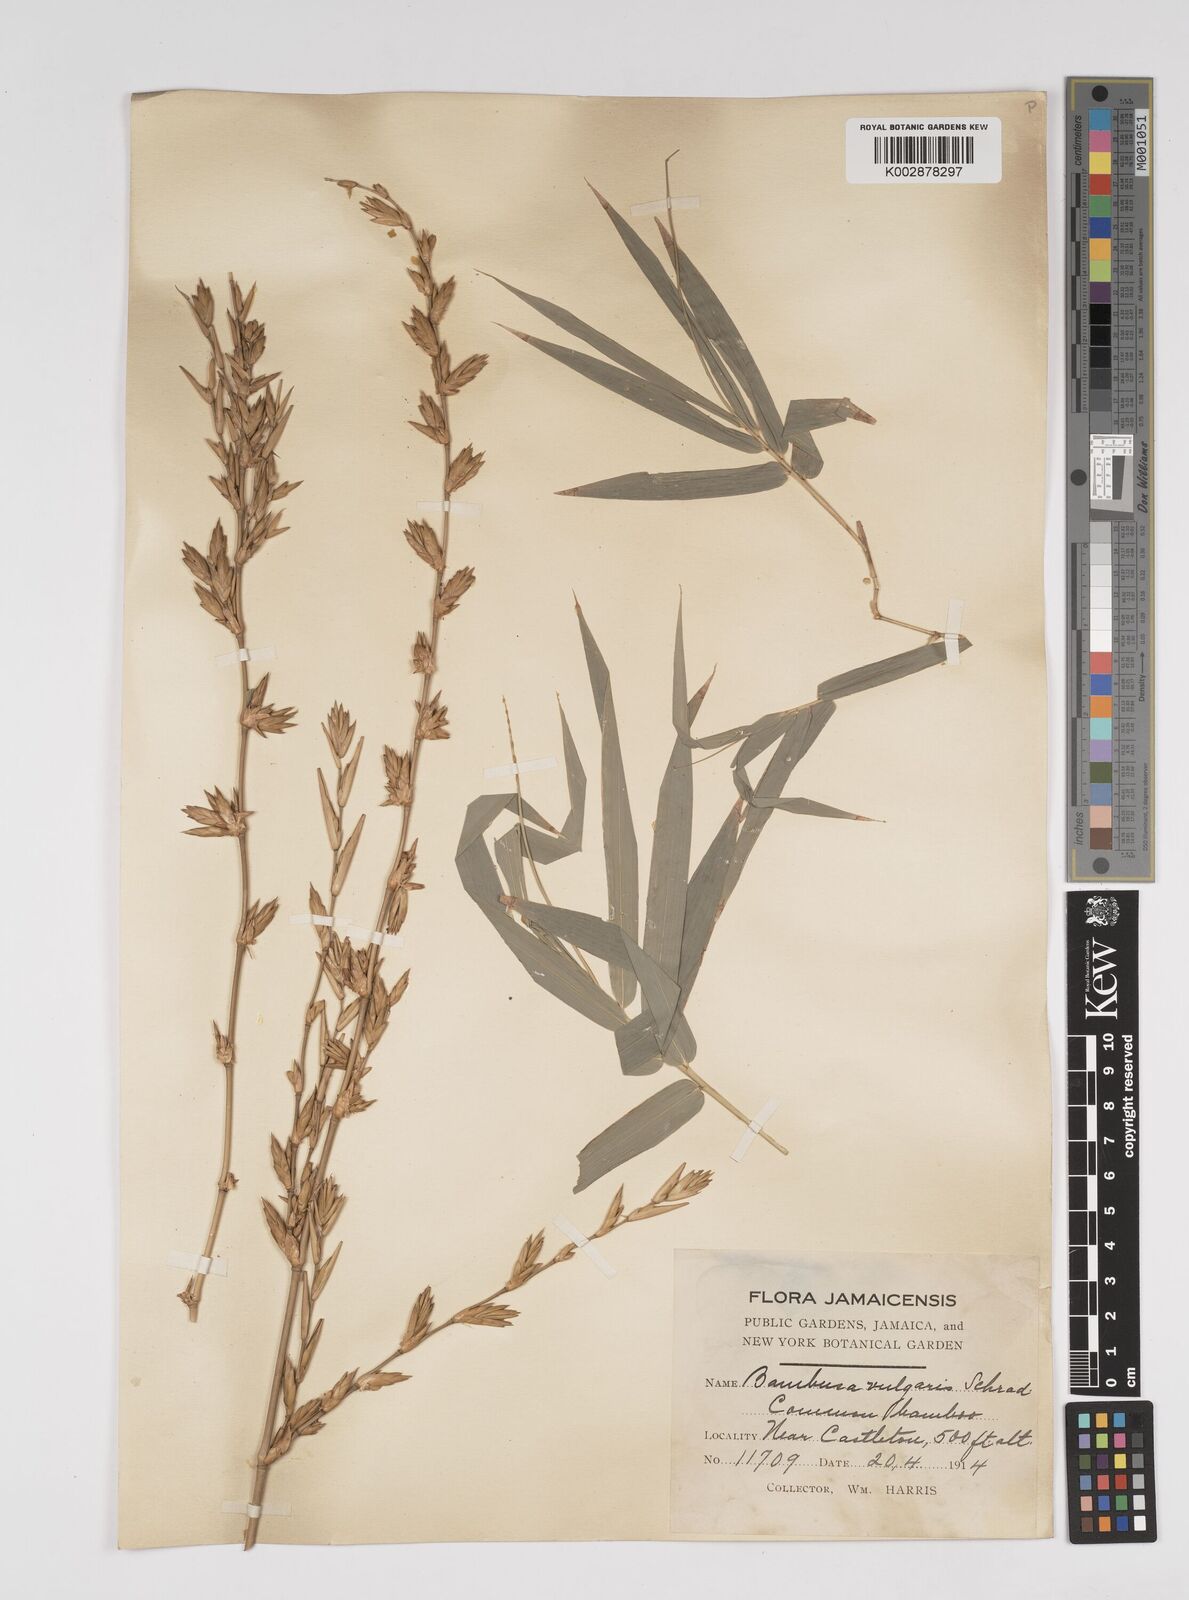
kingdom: Plantae
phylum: Tracheophyta
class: Liliopsida
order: Poales
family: Poaceae
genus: Bambusa
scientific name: Bambusa vulgaris
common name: Common bamboo
